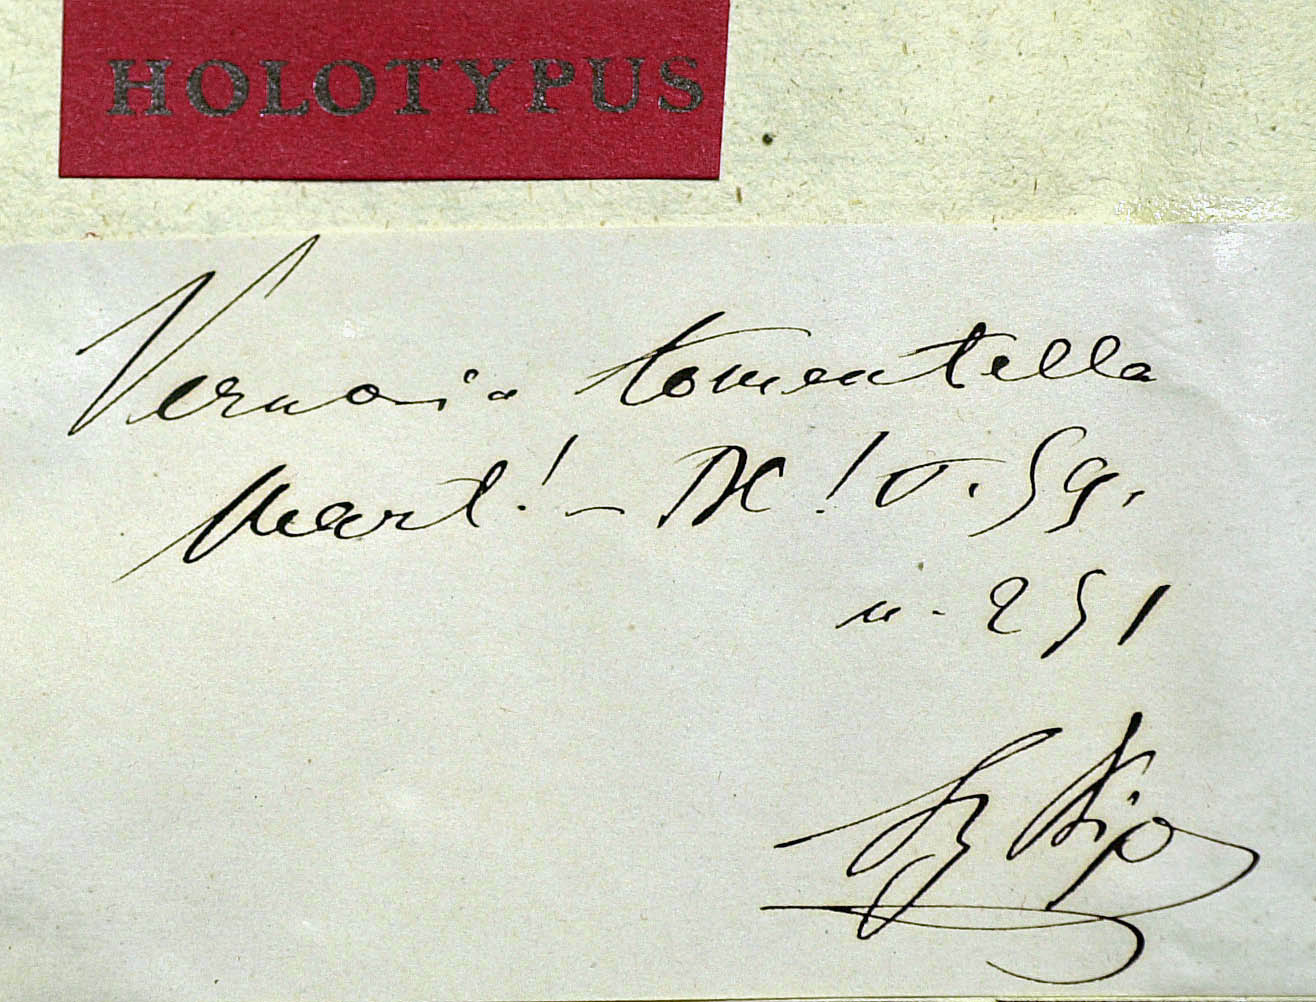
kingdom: Plantae
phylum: Tracheophyta
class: Magnoliopsida
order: Asterales
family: Asteraceae
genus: Lessingianthus
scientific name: Lessingianthus pycnostachyus
